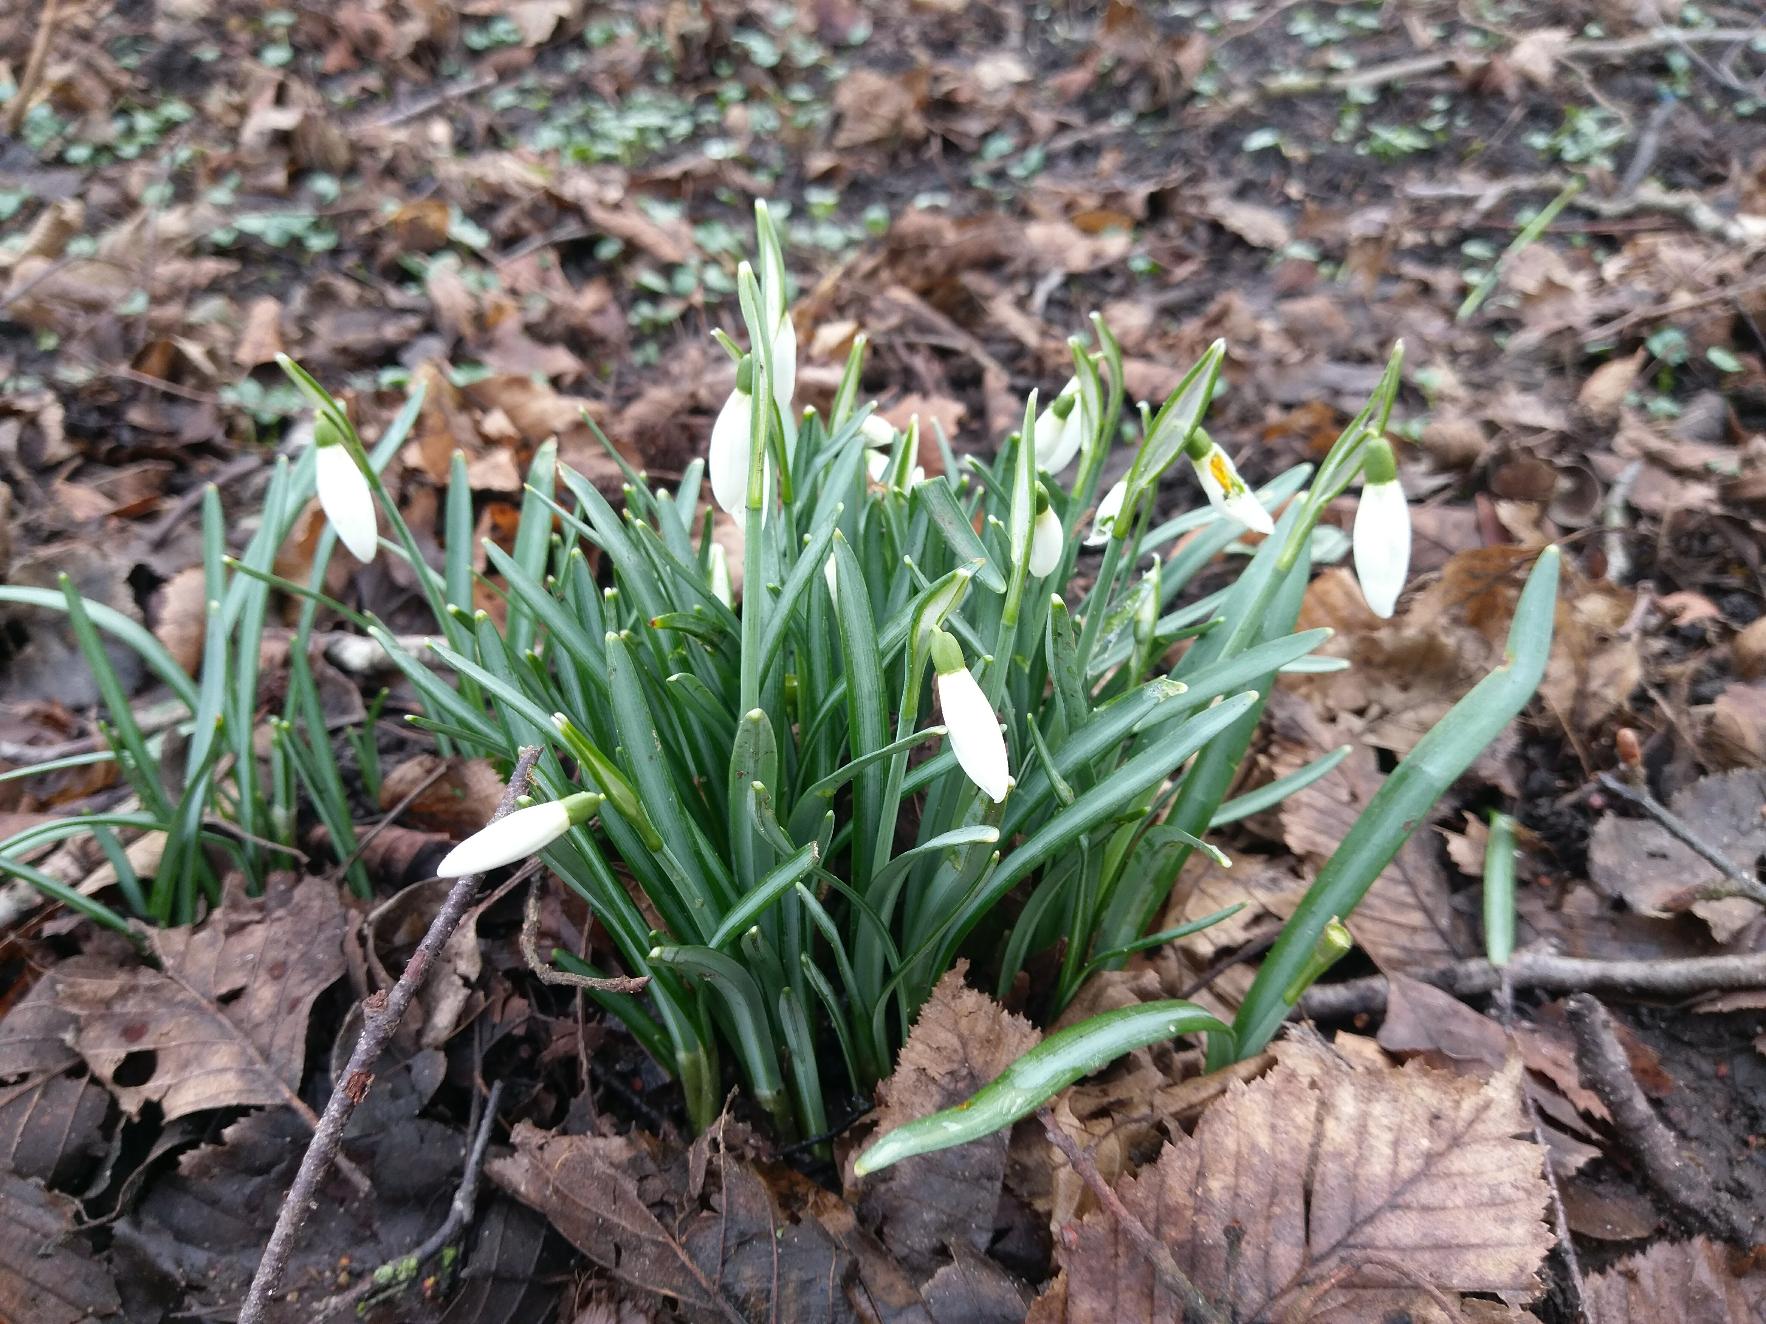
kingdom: Plantae
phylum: Tracheophyta
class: Liliopsida
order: Asparagales
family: Amaryllidaceae
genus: Galanthus
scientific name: Galanthus nivalis
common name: Vintergæk
